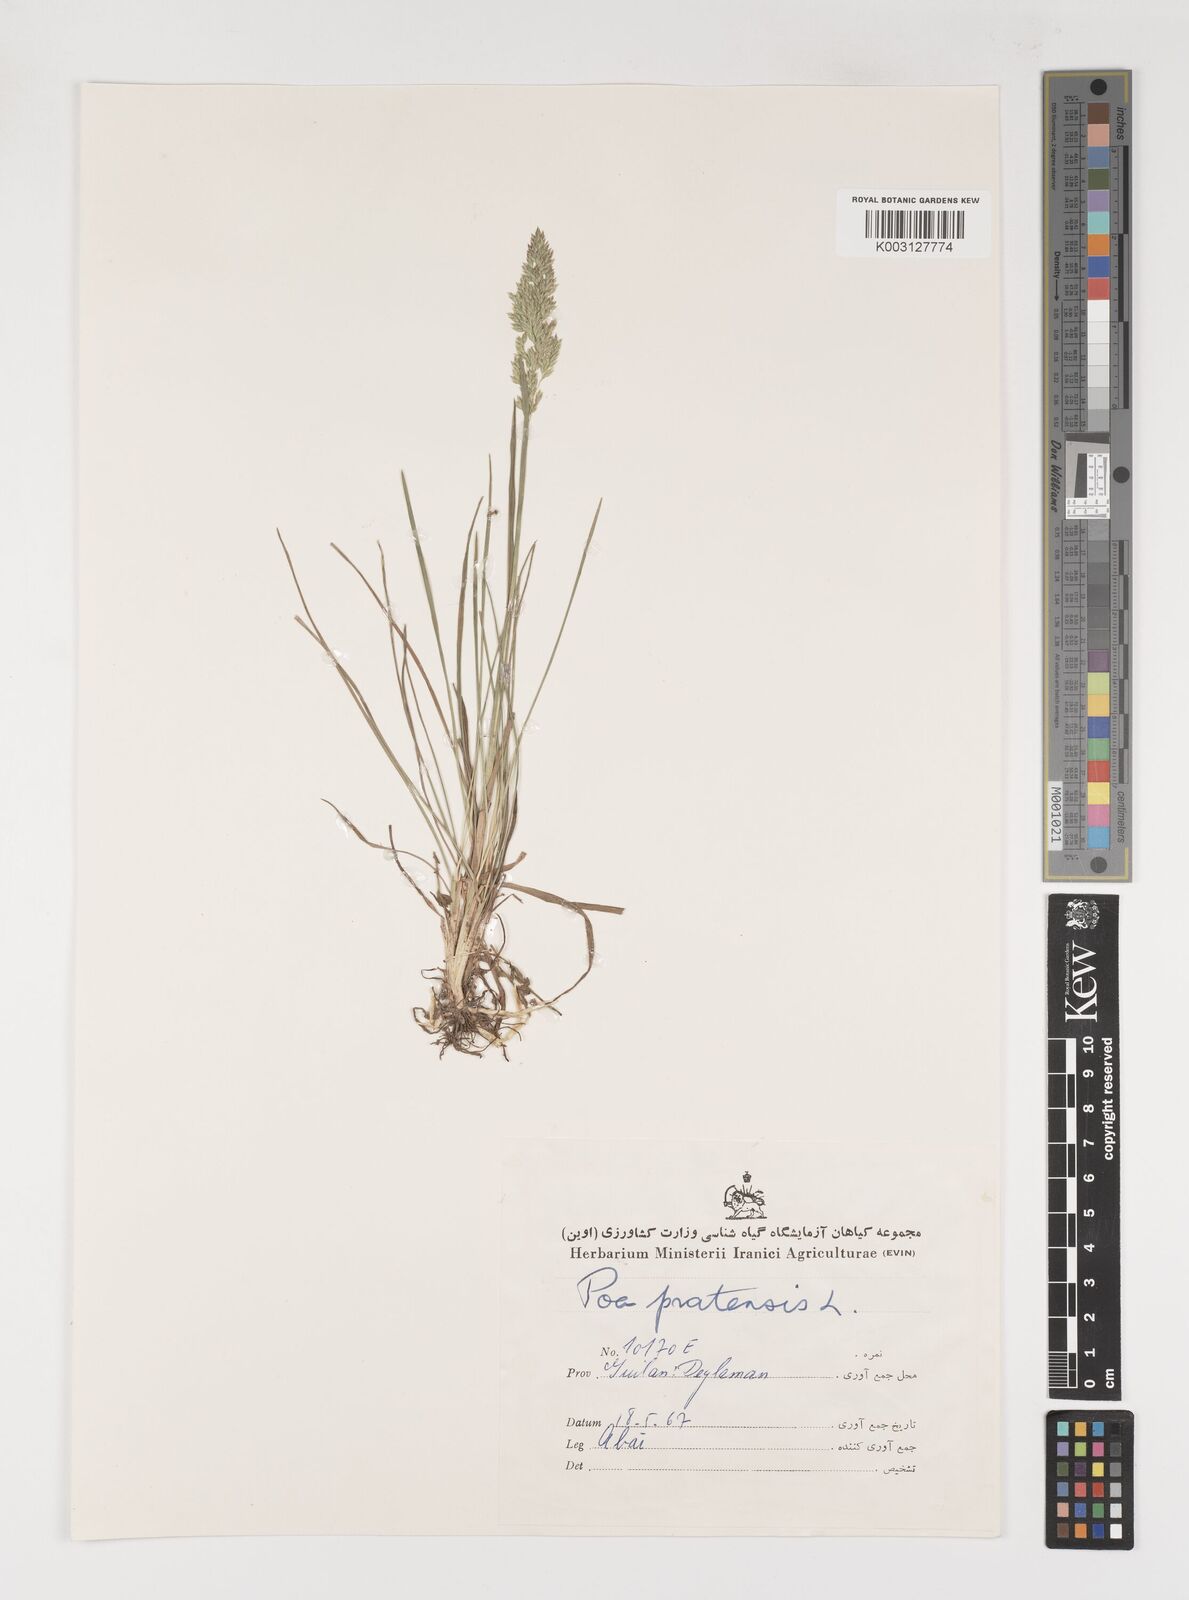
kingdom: Plantae
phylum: Tracheophyta
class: Liliopsida
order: Poales
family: Poaceae
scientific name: Poaceae
